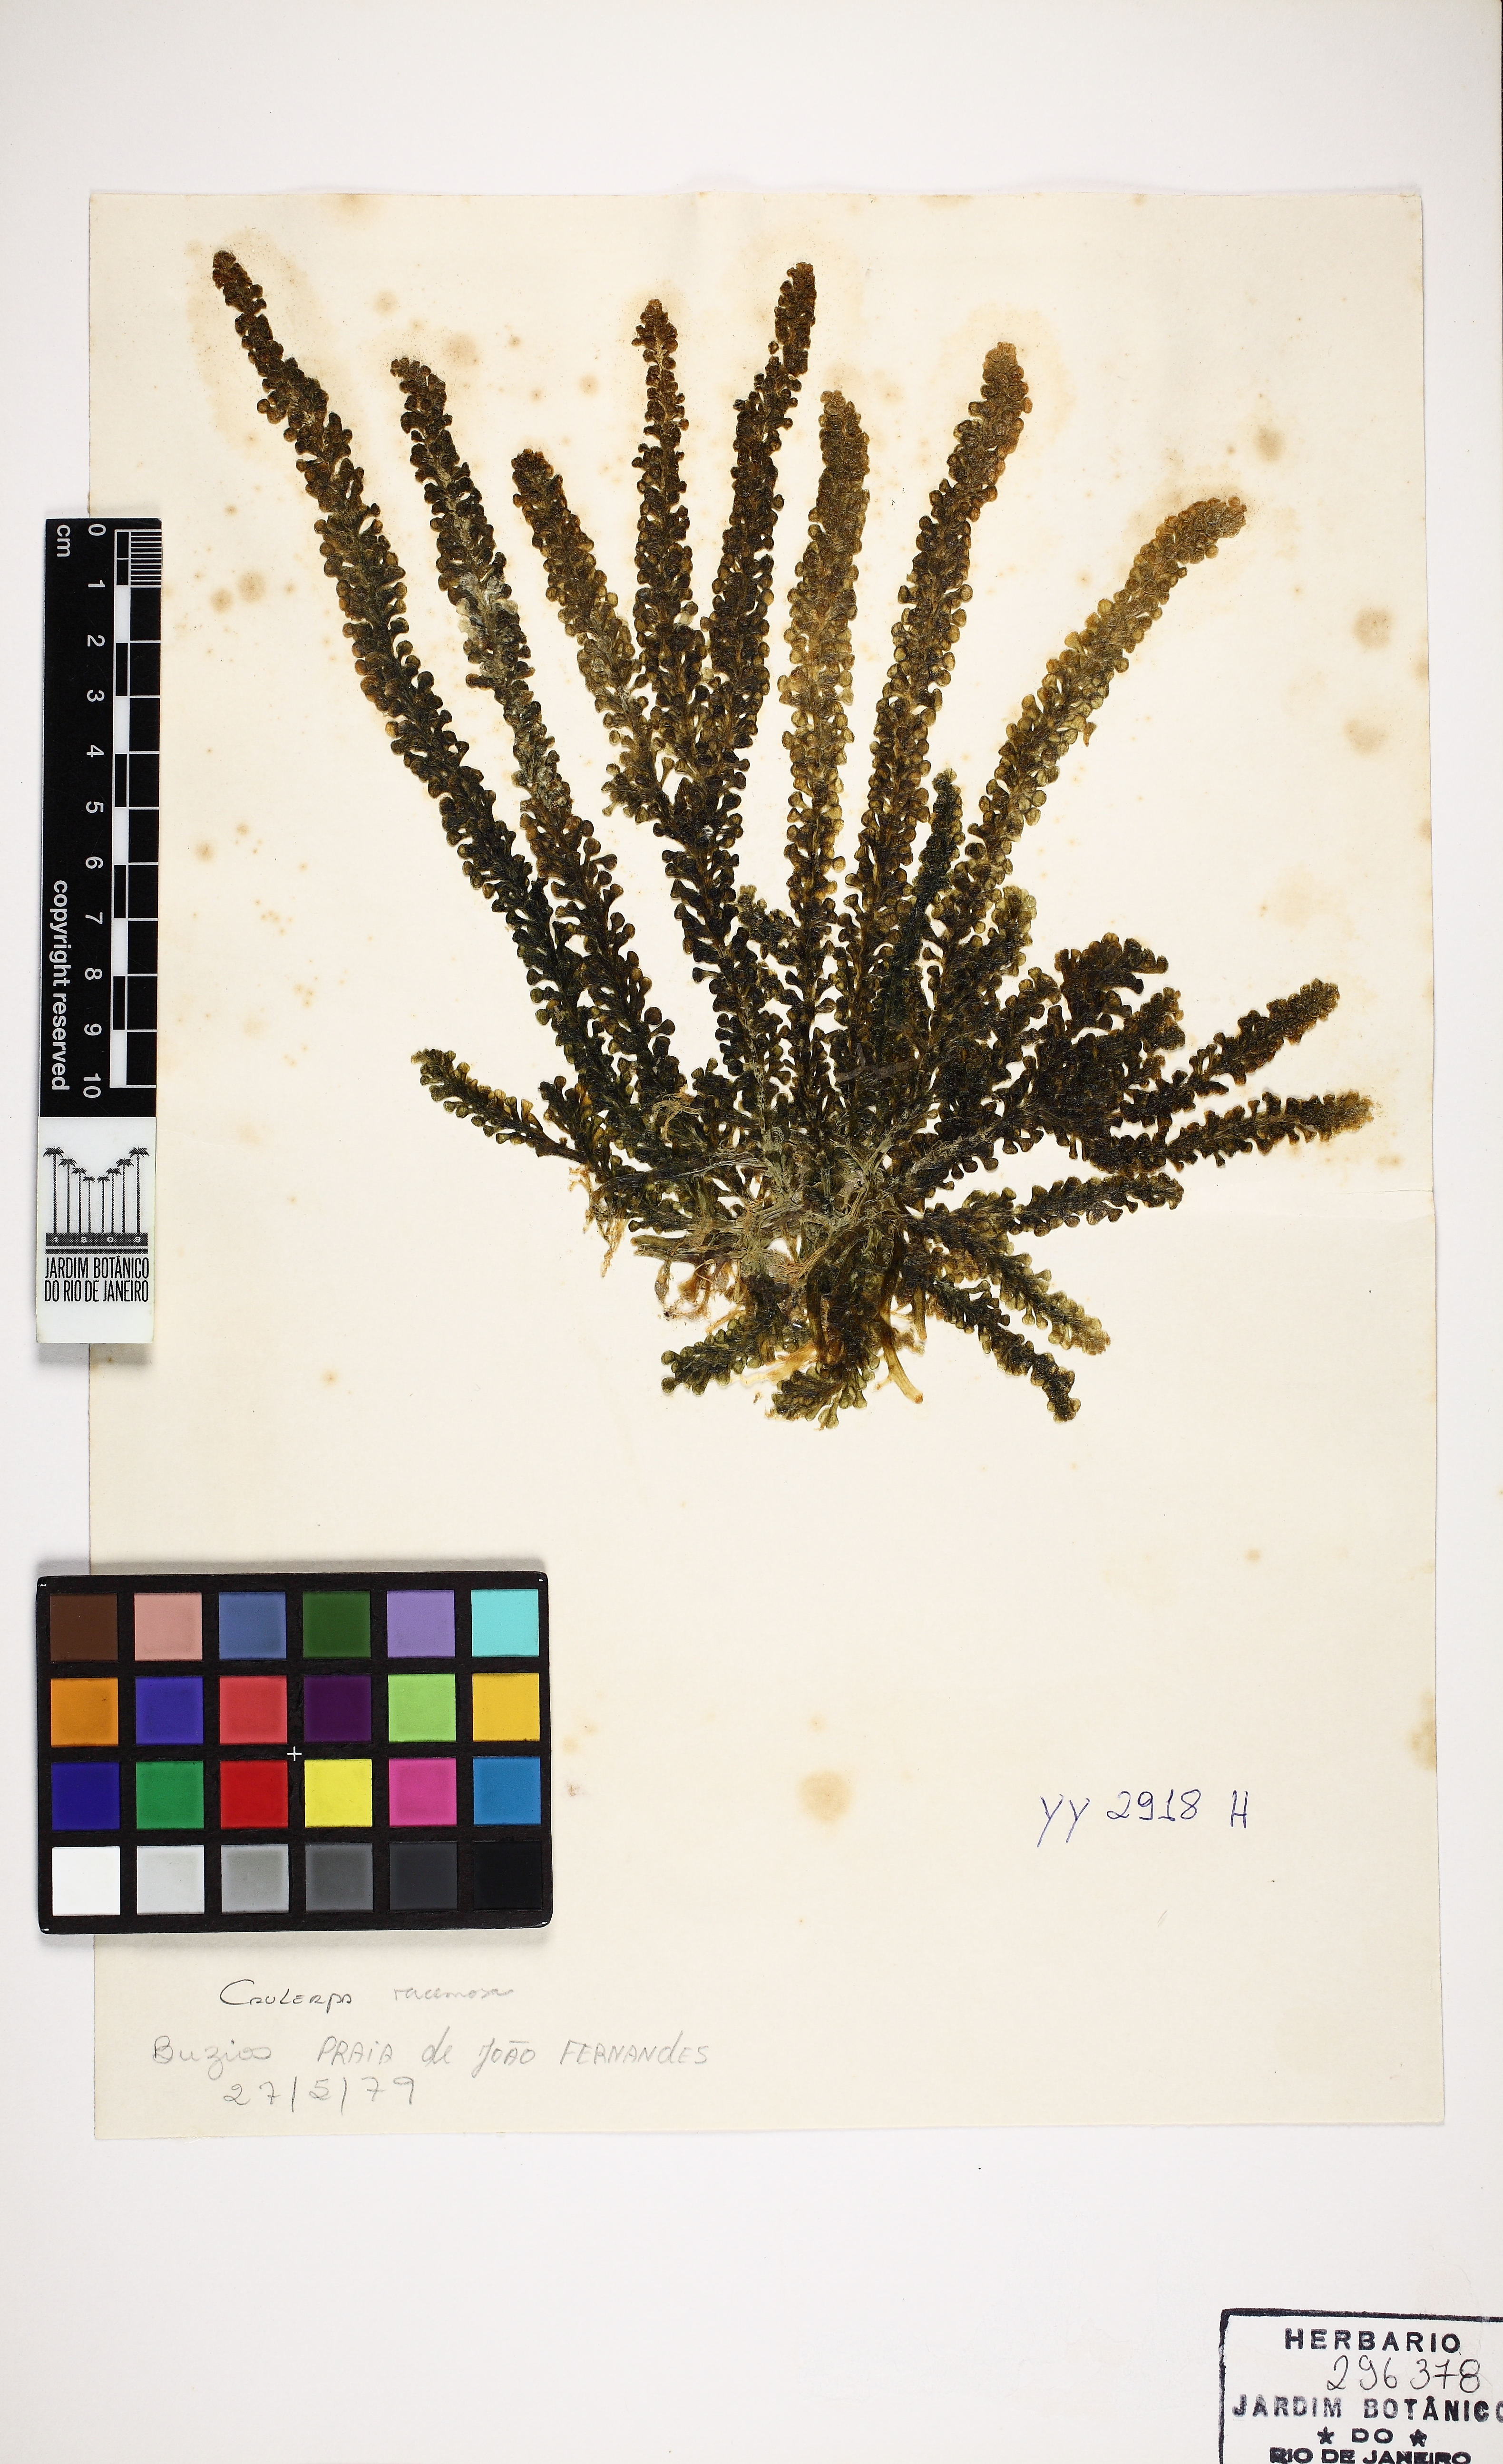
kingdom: Plantae
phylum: Chlorophyta
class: Ulvophyceae
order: Bryopsidales
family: Caulerpaceae
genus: Caulerpa
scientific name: Caulerpa racemosa
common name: Green grape algae
